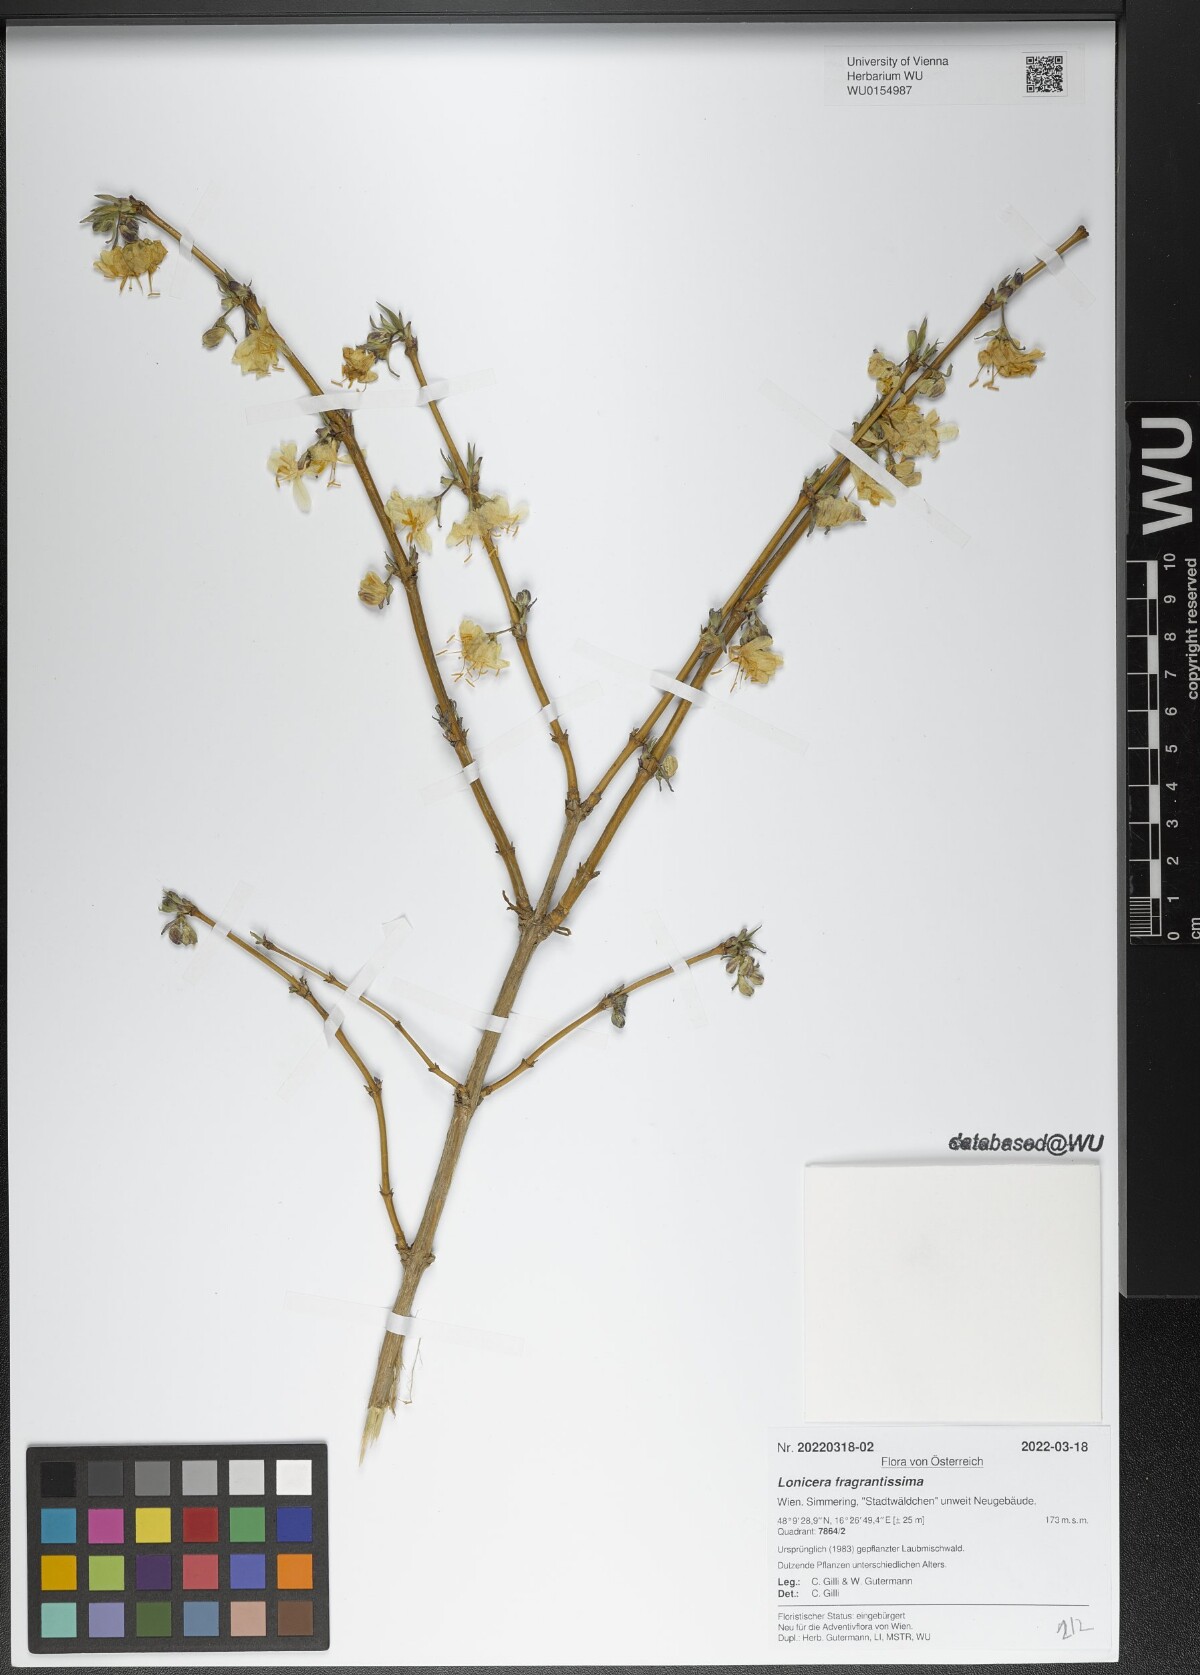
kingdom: Plantae
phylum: Tracheophyta
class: Magnoliopsida
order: Dipsacales
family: Caprifoliaceae
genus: Lonicera
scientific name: Lonicera fragrantissima
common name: Fragrant honeysuckle
